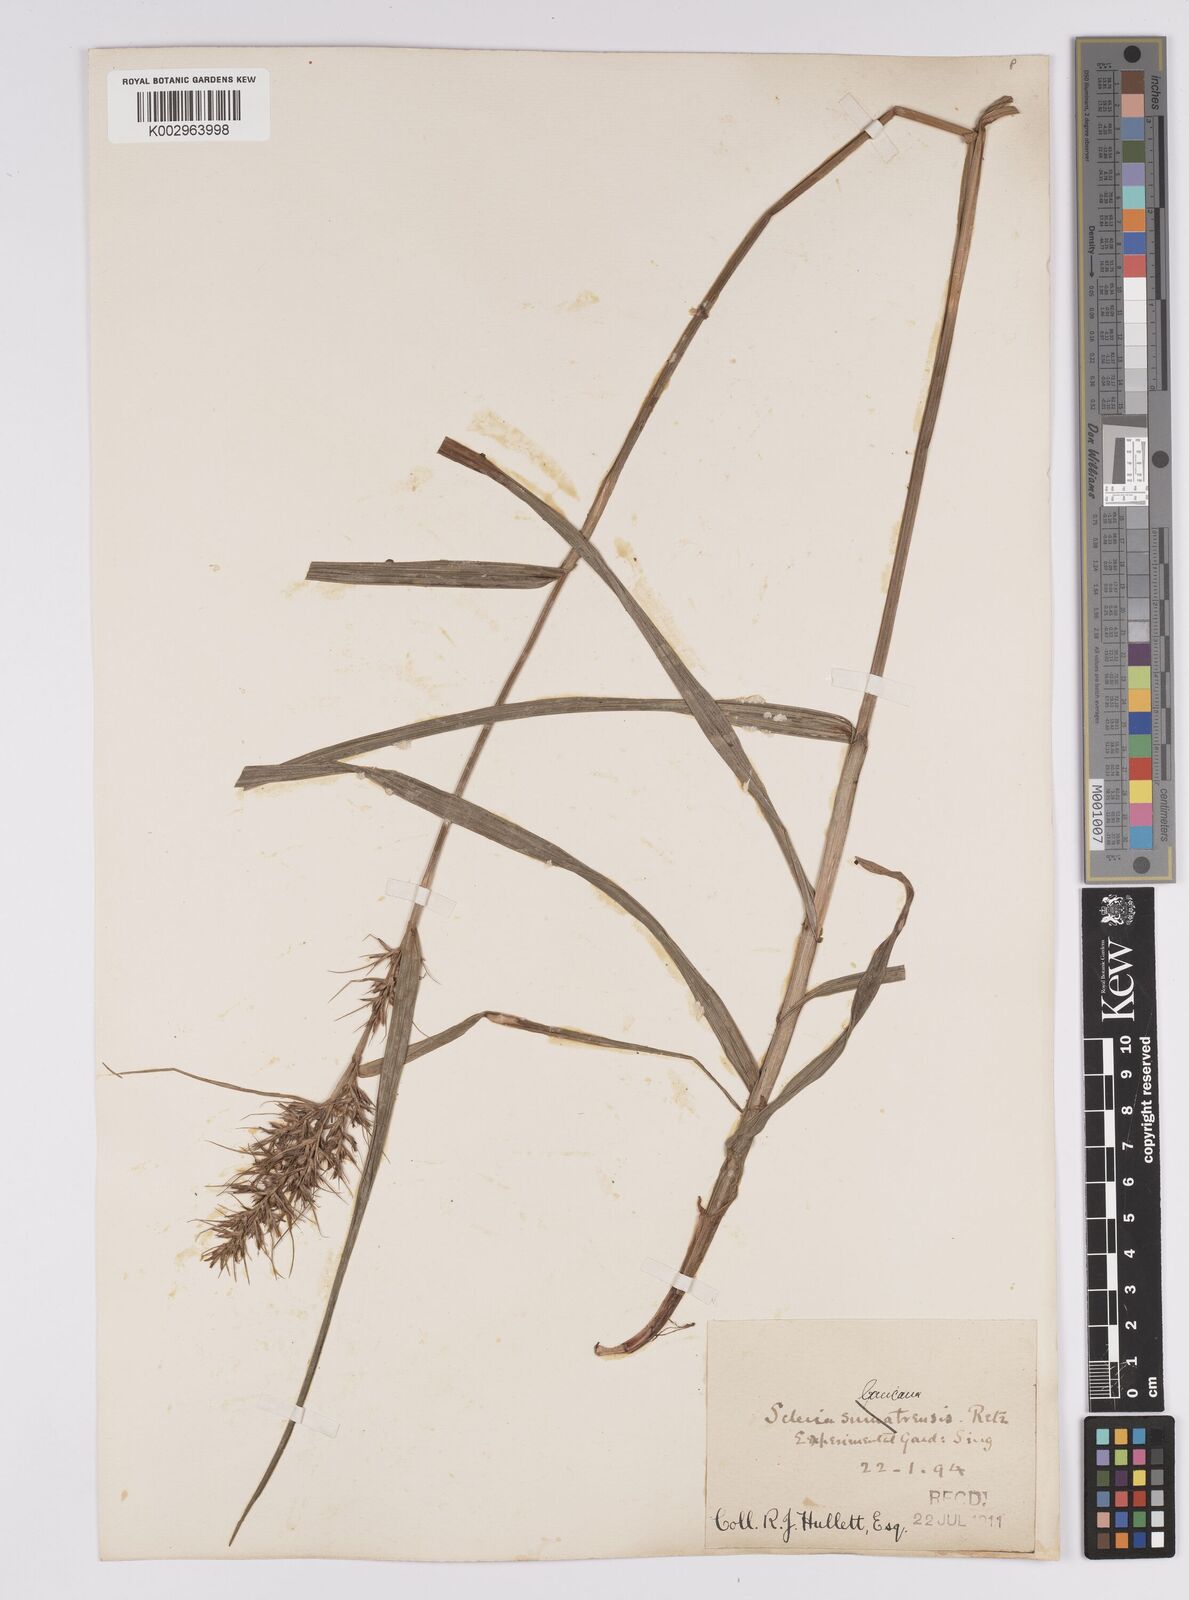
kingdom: Plantae
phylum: Tracheophyta
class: Liliopsida
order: Poales
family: Cyperaceae
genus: Scleria
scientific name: Scleria ciliaris
